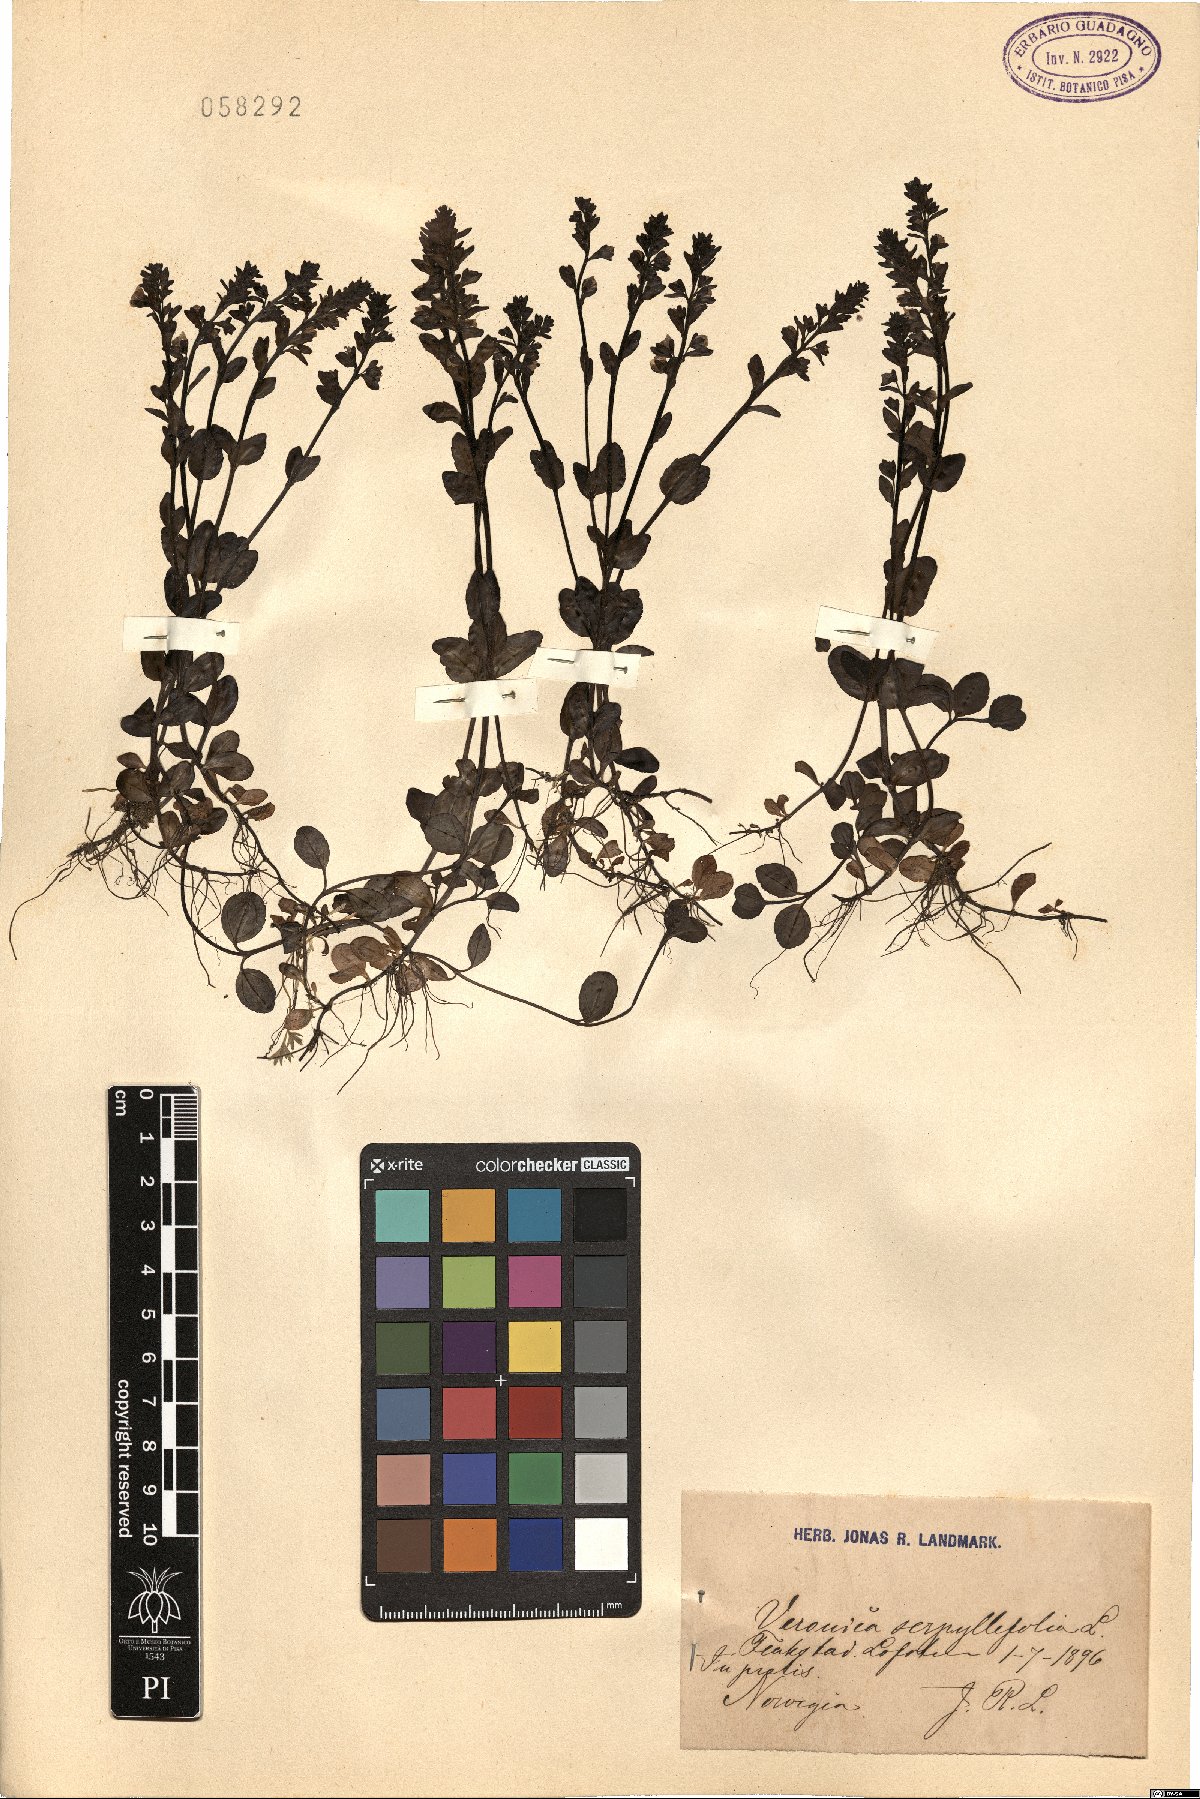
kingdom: Plantae
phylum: Tracheophyta
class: Magnoliopsida
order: Lamiales
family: Plantaginaceae
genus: Veronica
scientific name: Veronica serpyllifolia
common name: Thyme-leaved speedwell
